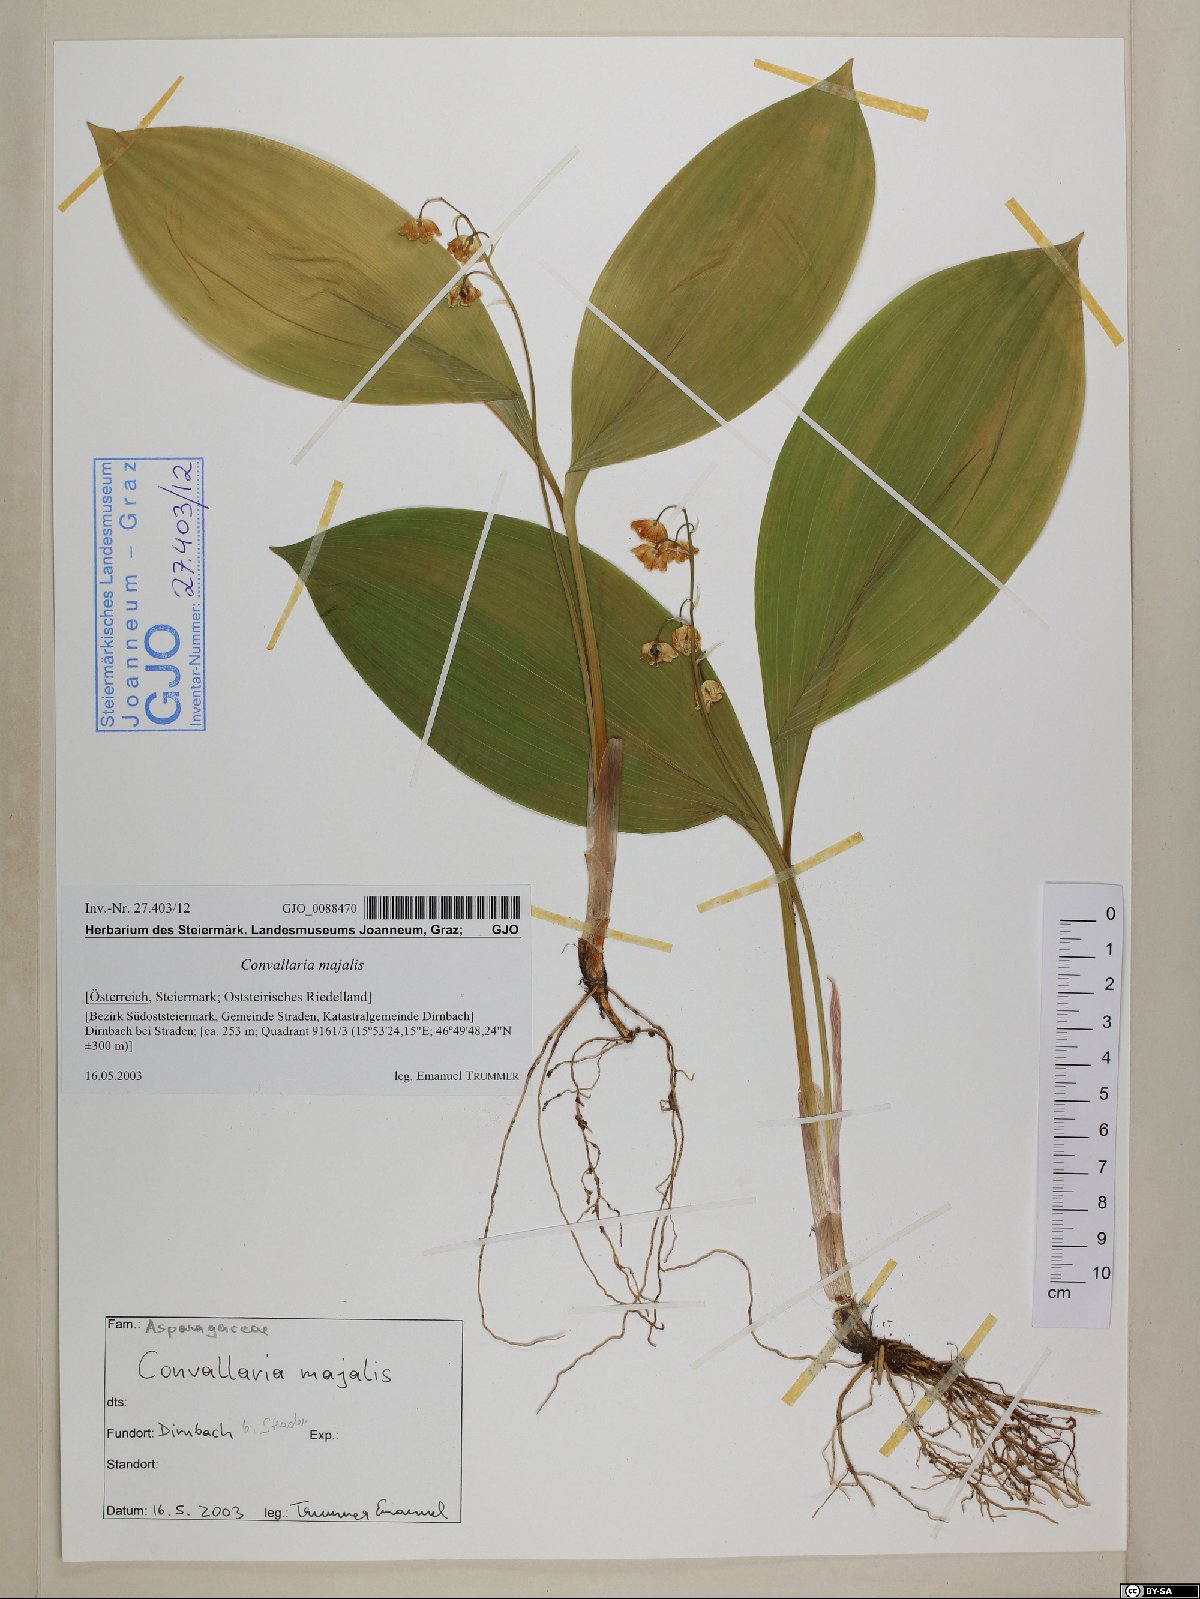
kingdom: Plantae
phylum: Tracheophyta
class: Liliopsida
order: Asparagales
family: Asparagaceae
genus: Convallaria
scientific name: Convallaria majalis
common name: Lily-of-the-valley
